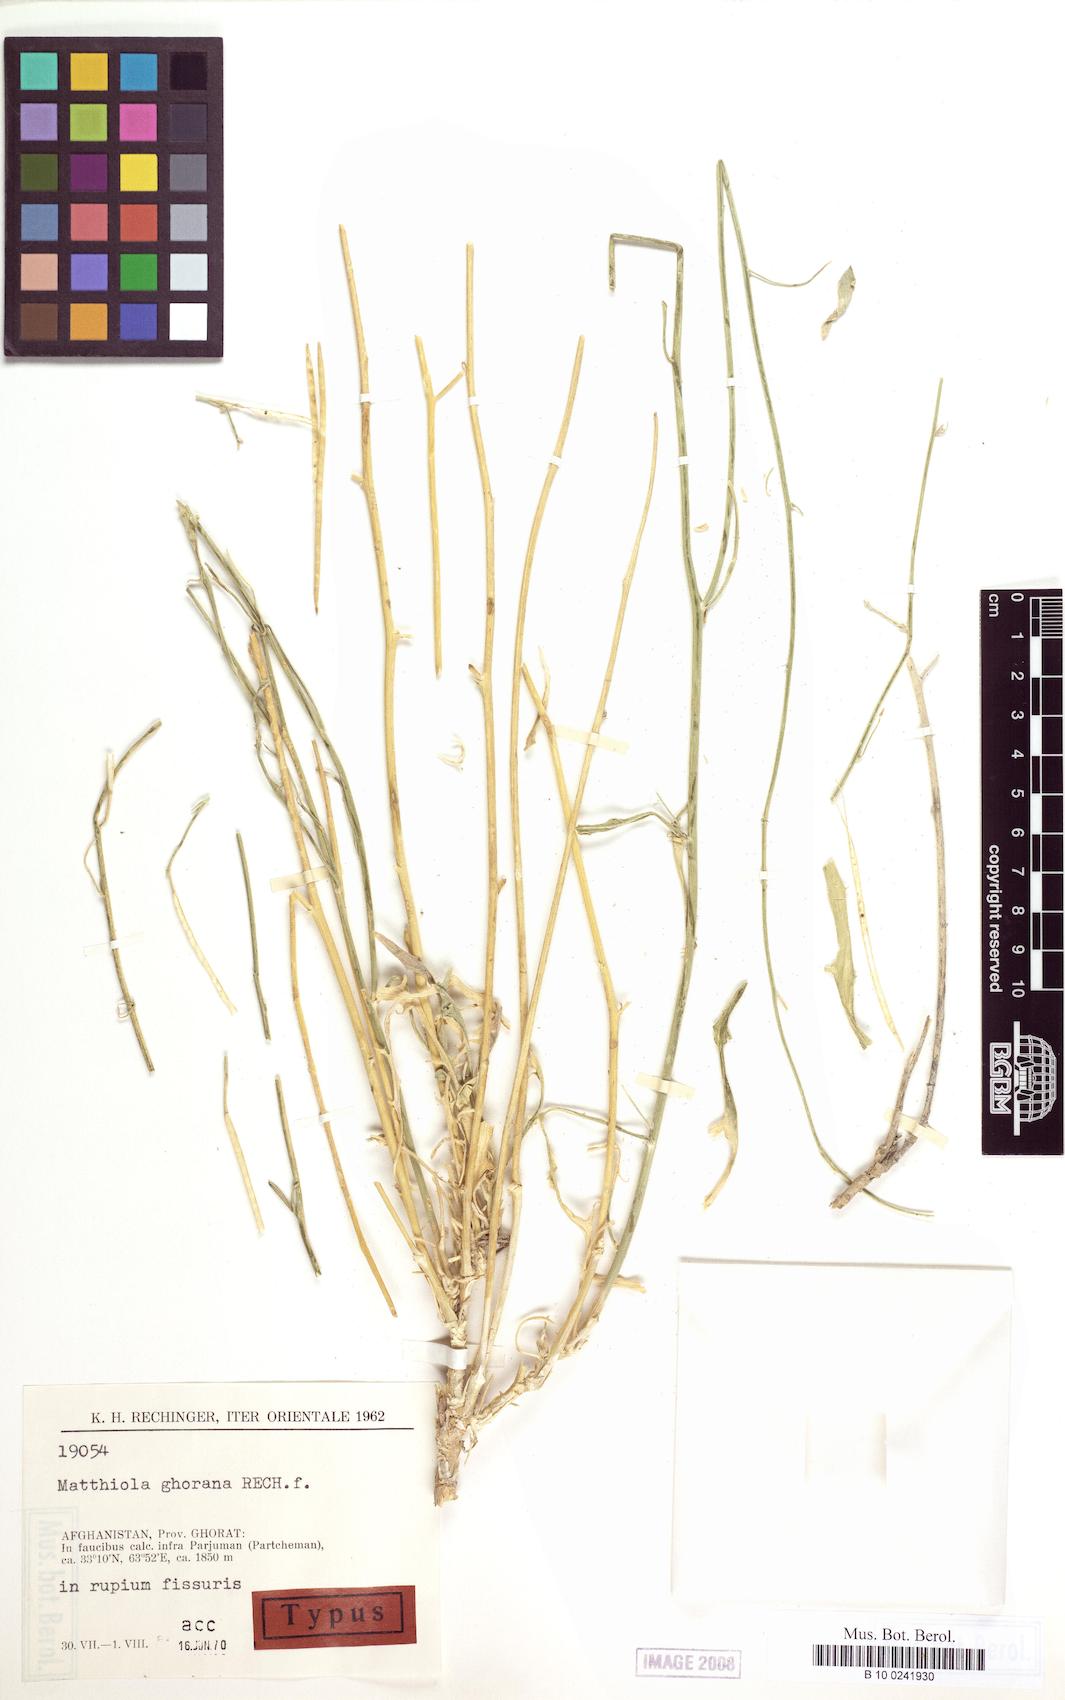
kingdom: Plantae
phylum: Tracheophyta
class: Magnoliopsida
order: Brassicales
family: Brassicaceae
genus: Matthiola
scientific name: Matthiola ghorana
